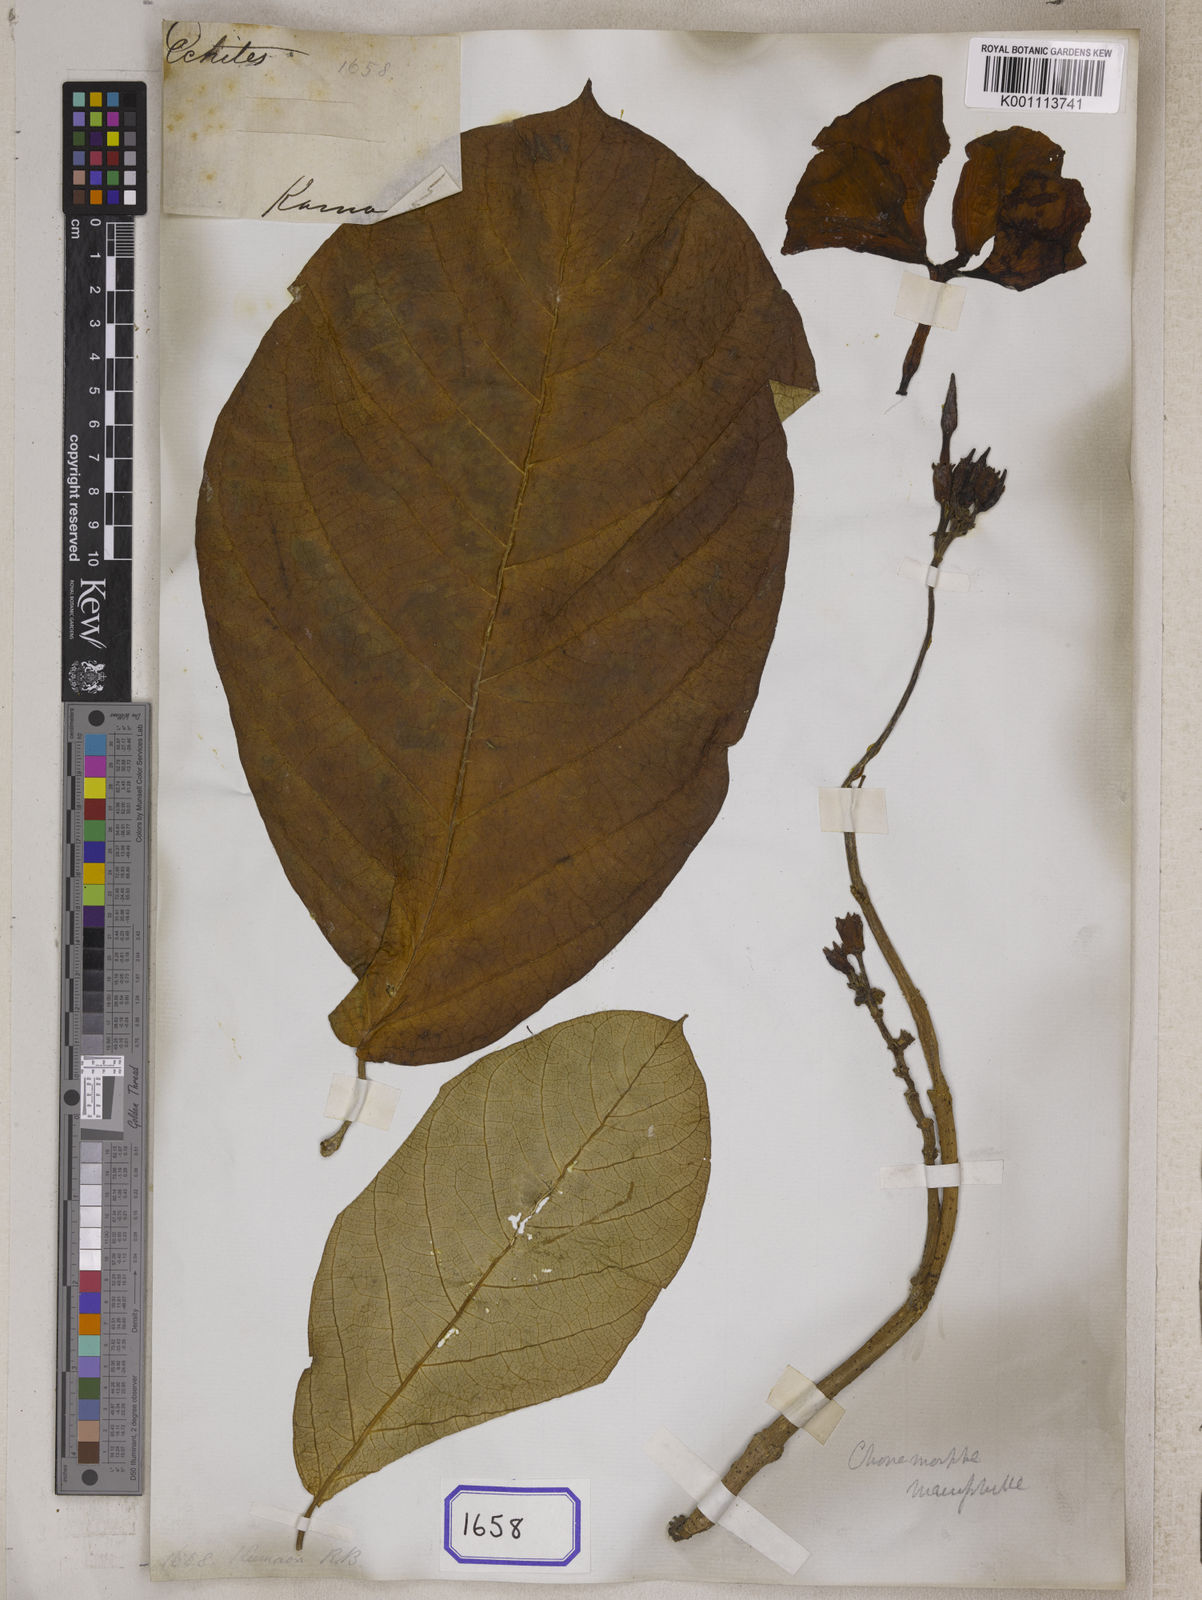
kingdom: Plantae
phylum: Tracheophyta
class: Magnoliopsida
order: Gentianales
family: Apocynaceae
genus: Chonemorpha
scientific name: Chonemorpha fragrans
